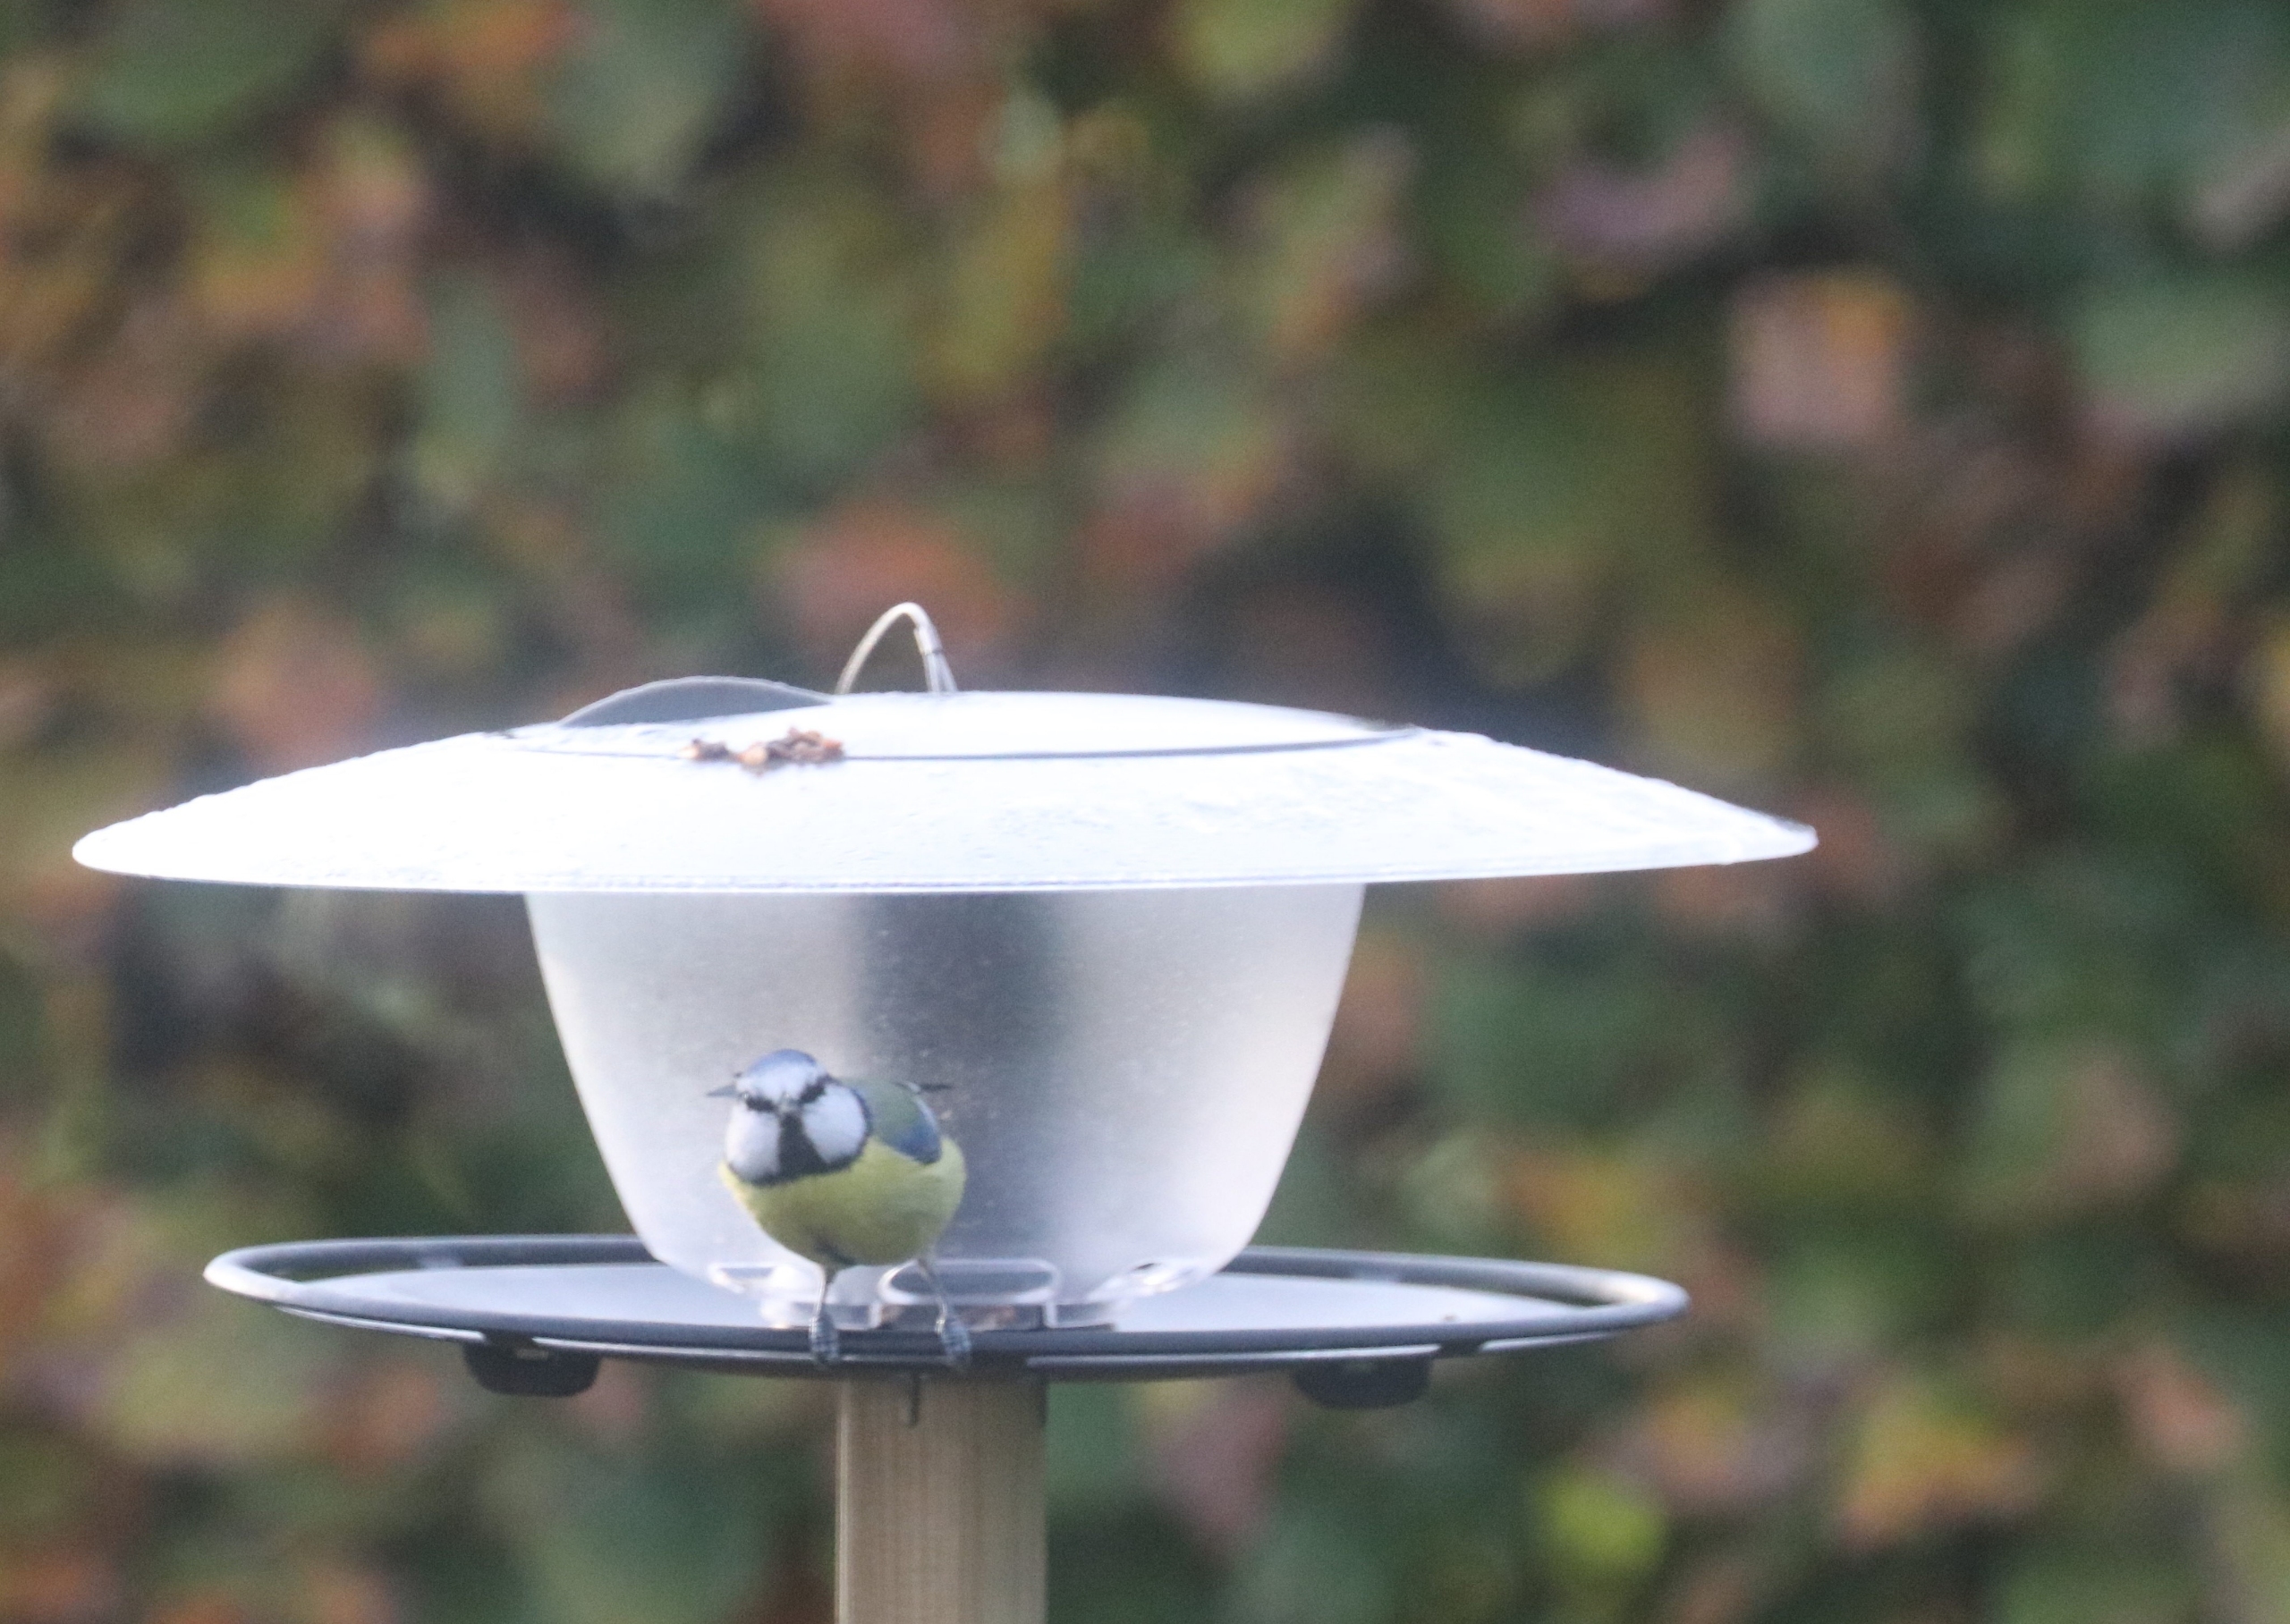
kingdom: Animalia
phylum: Chordata
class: Aves
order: Passeriformes
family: Paridae
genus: Cyanistes
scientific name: Cyanistes caeruleus
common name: Blåmejse
